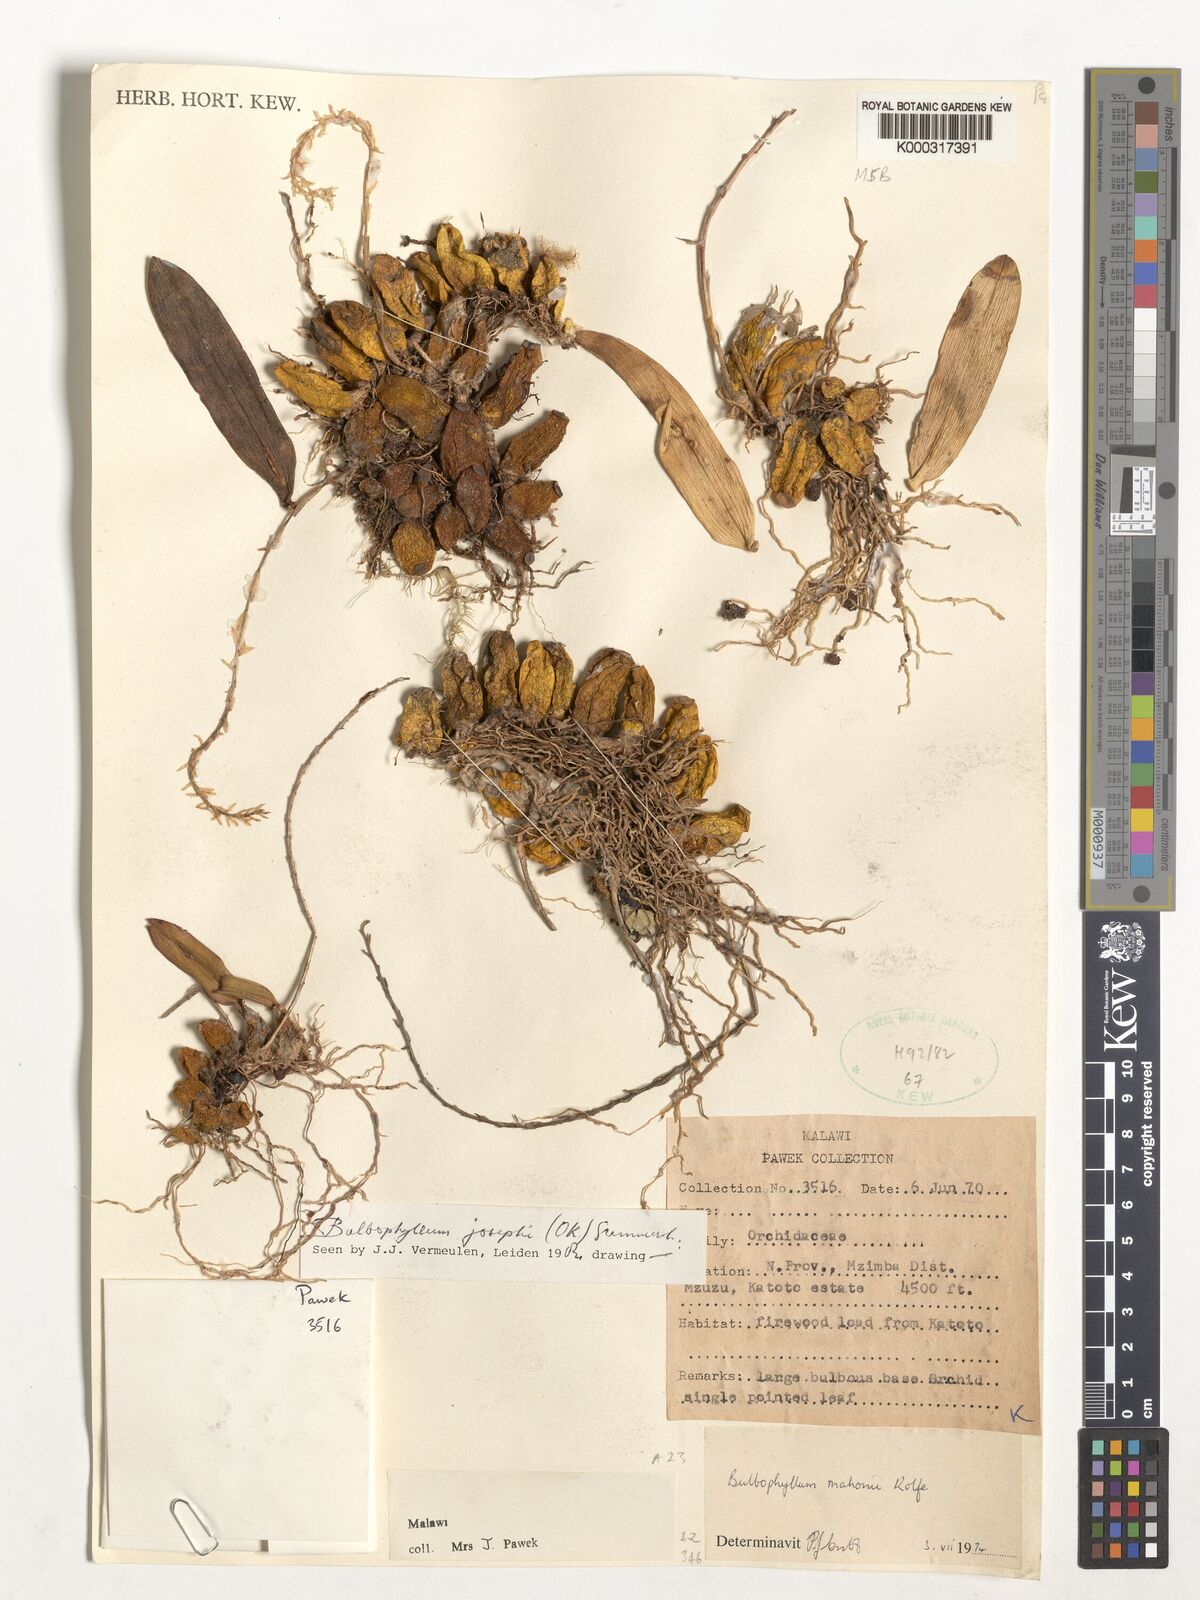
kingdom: Plantae
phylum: Tracheophyta
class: Liliopsida
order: Asparagales
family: Orchidaceae
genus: Bulbophyllum
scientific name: Bulbophyllum josephi
